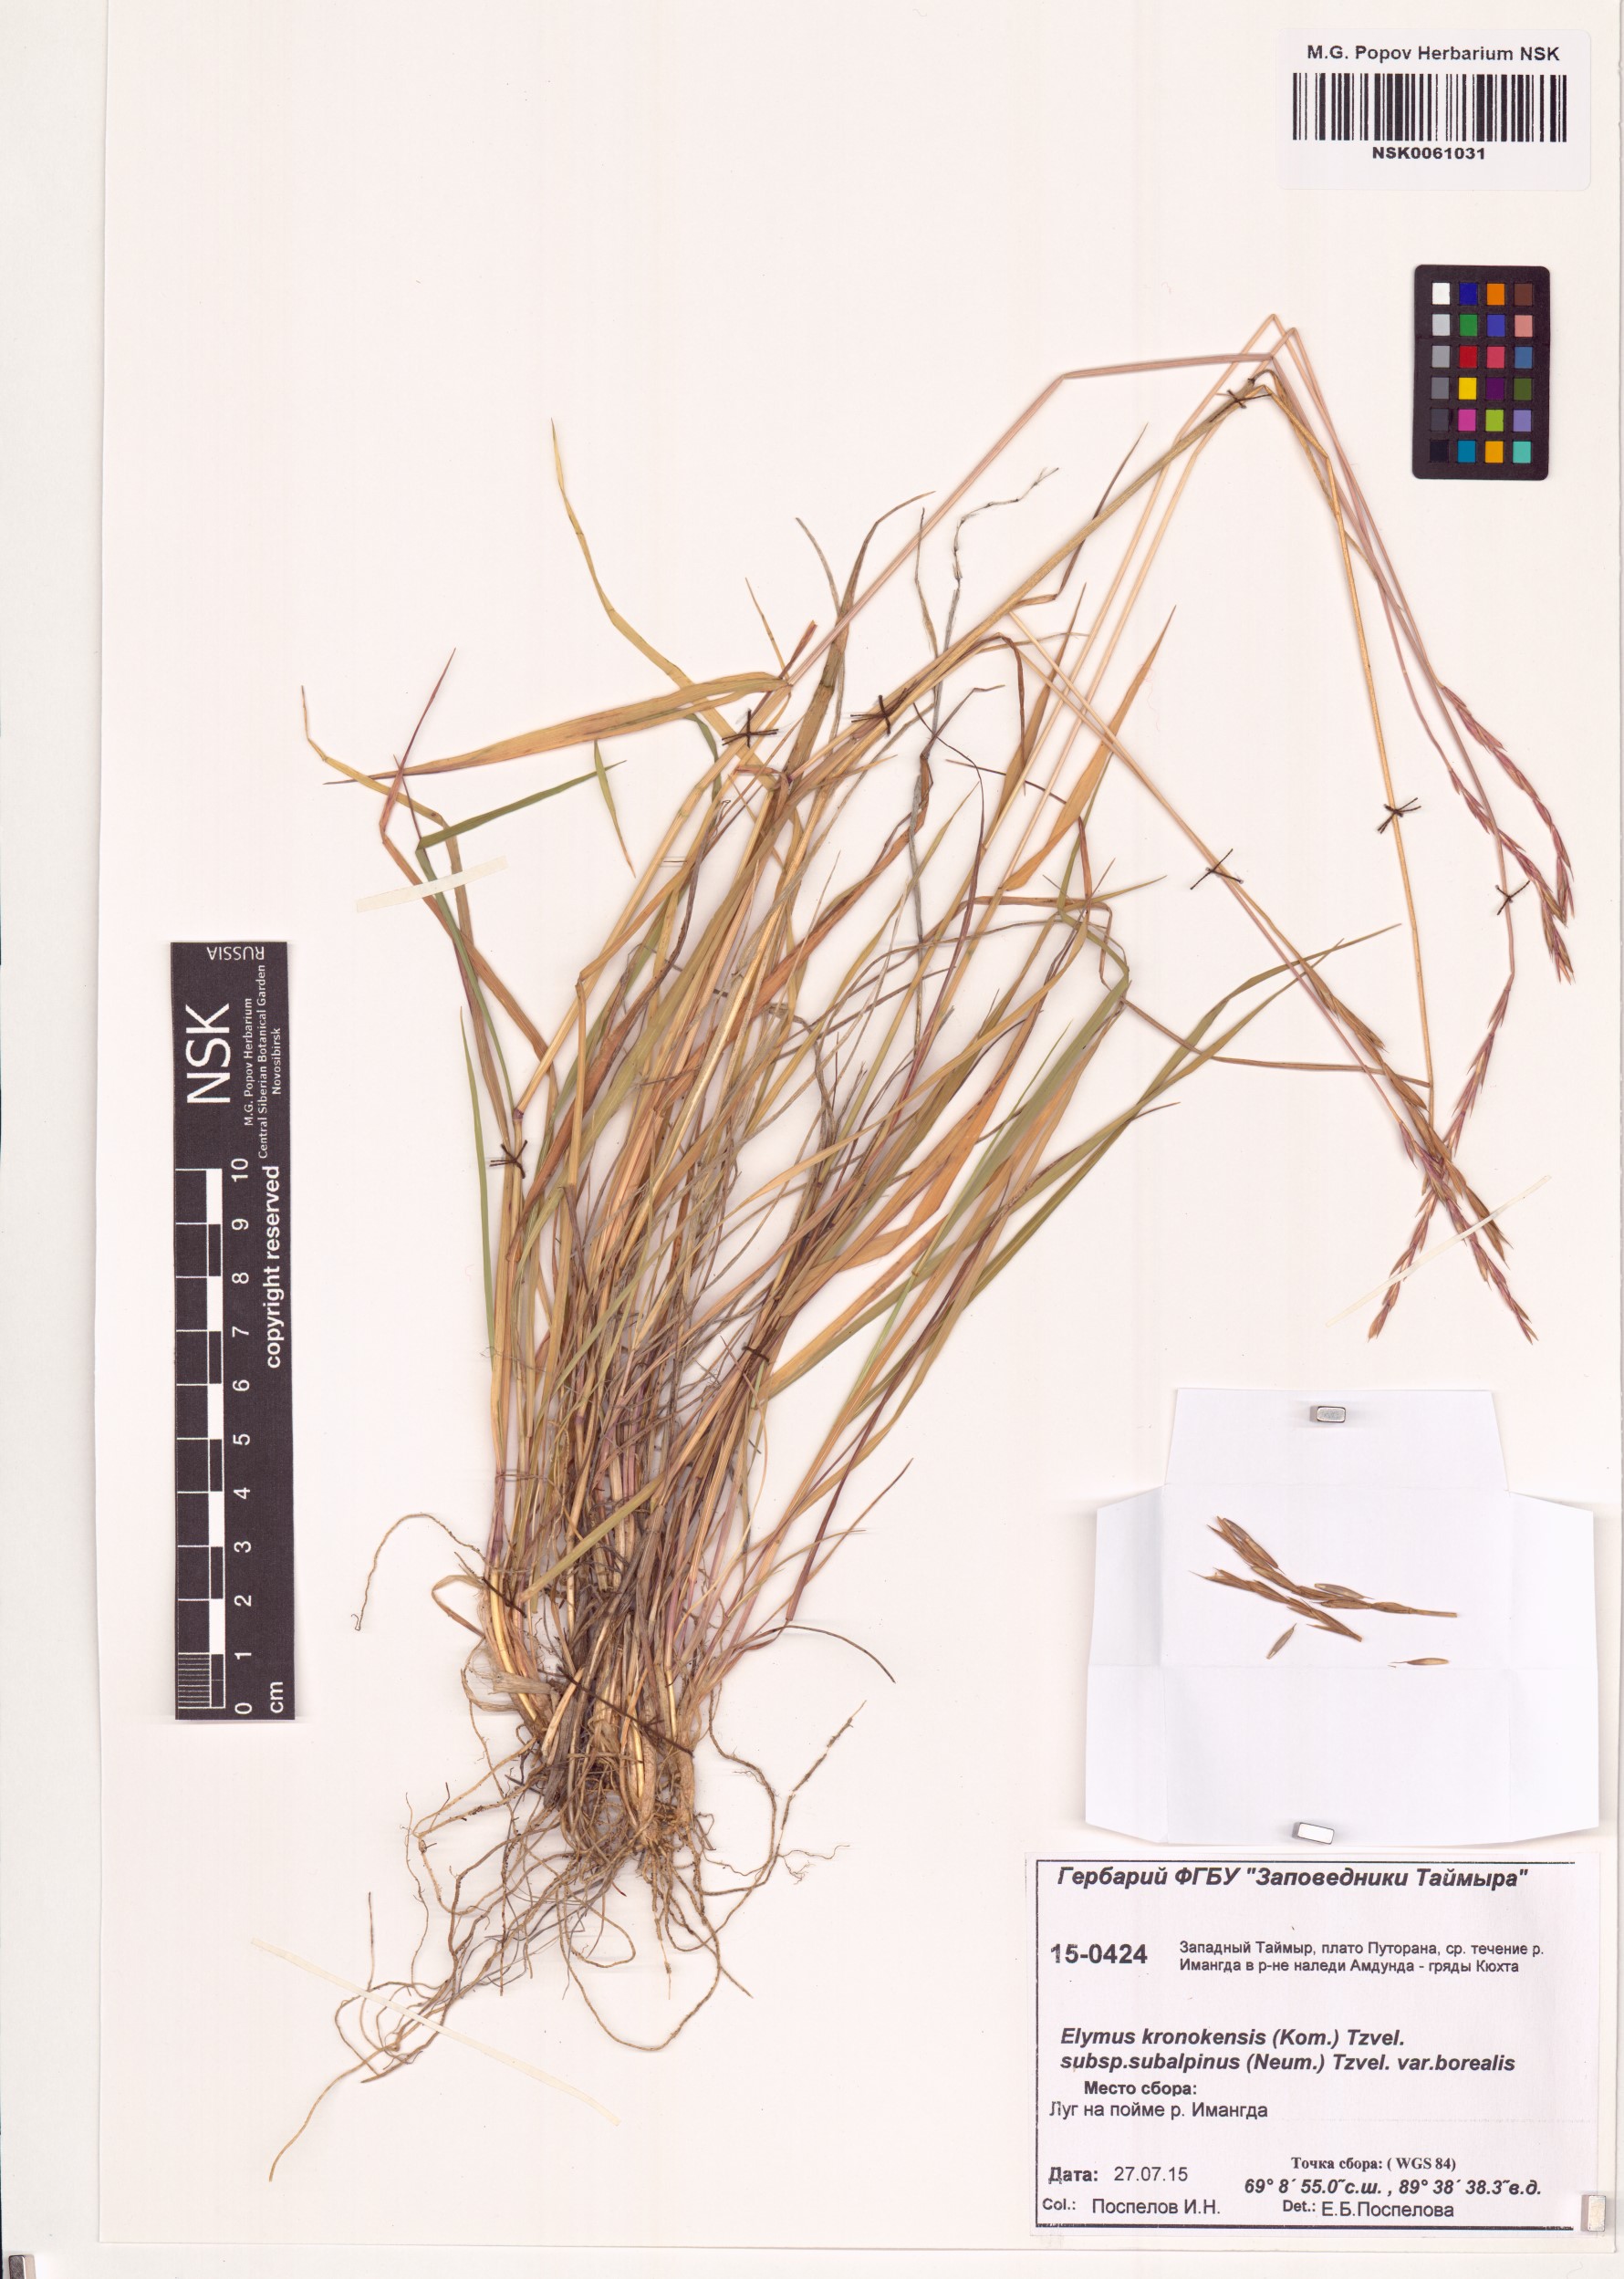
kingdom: Plantae
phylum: Tracheophyta
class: Liliopsida
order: Poales
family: Poaceae
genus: Elymus
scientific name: Elymus macrourus
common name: Northern wheatgrass
